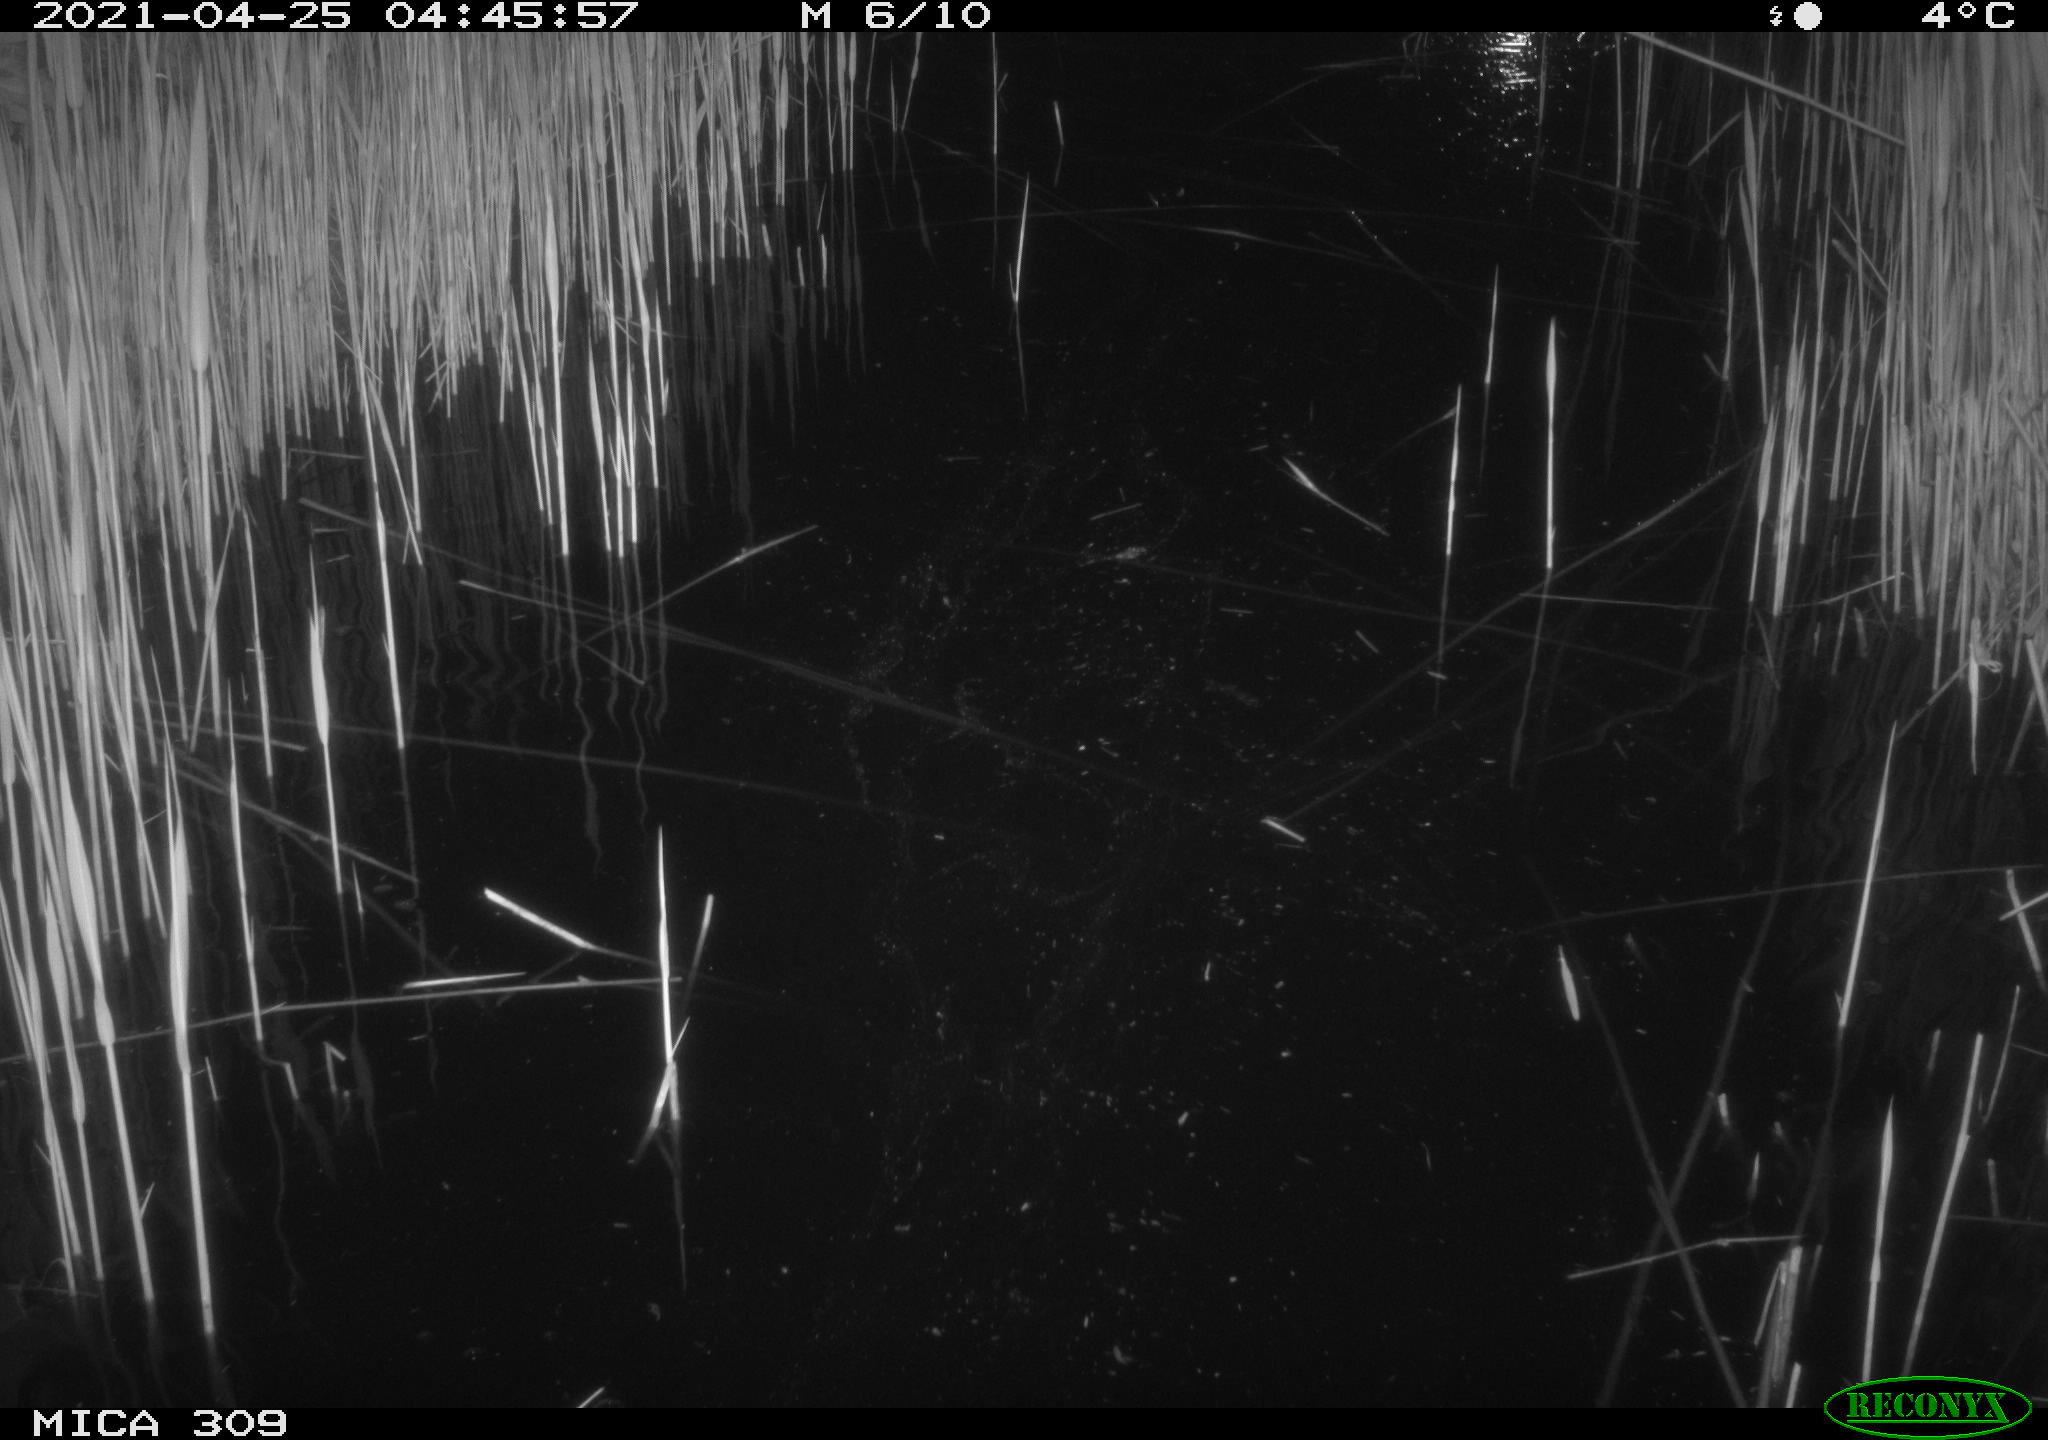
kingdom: Animalia
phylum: Chordata
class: Aves
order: Anseriformes
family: Anatidae
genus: Anas
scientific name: Anas platyrhynchos
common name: Mallard
